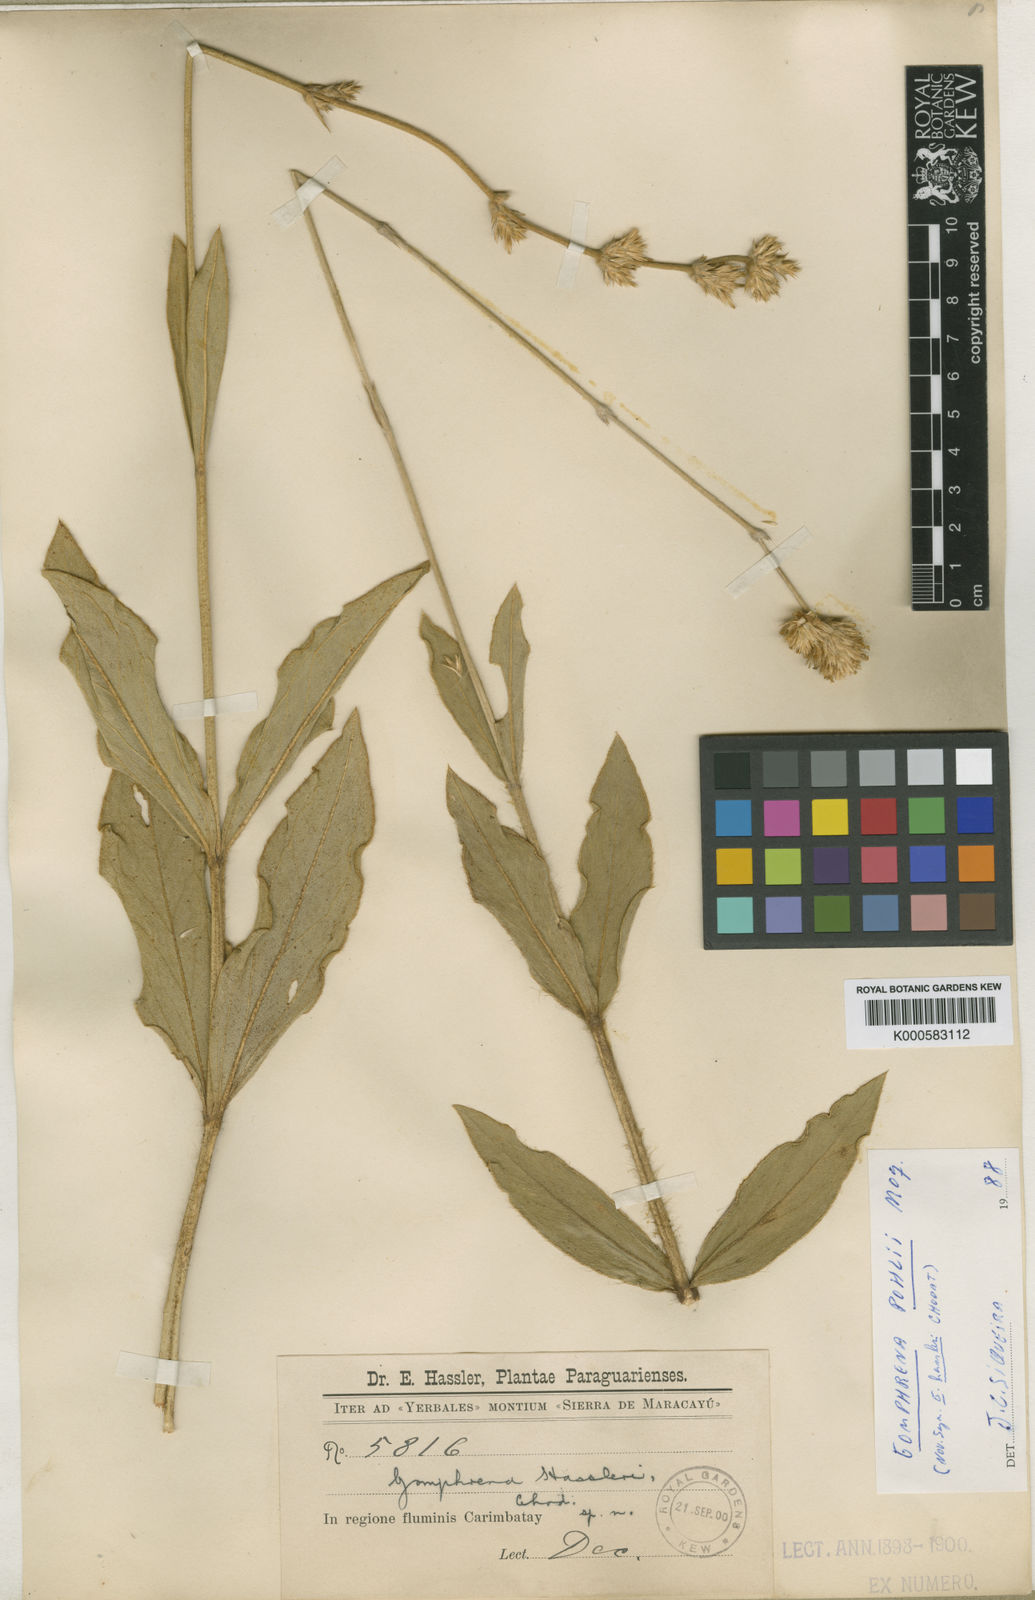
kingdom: Plantae
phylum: Tracheophyta
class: Magnoliopsida
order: Caryophyllales
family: Amaranthaceae
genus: Gomphrena
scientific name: Gomphrena pohlii
